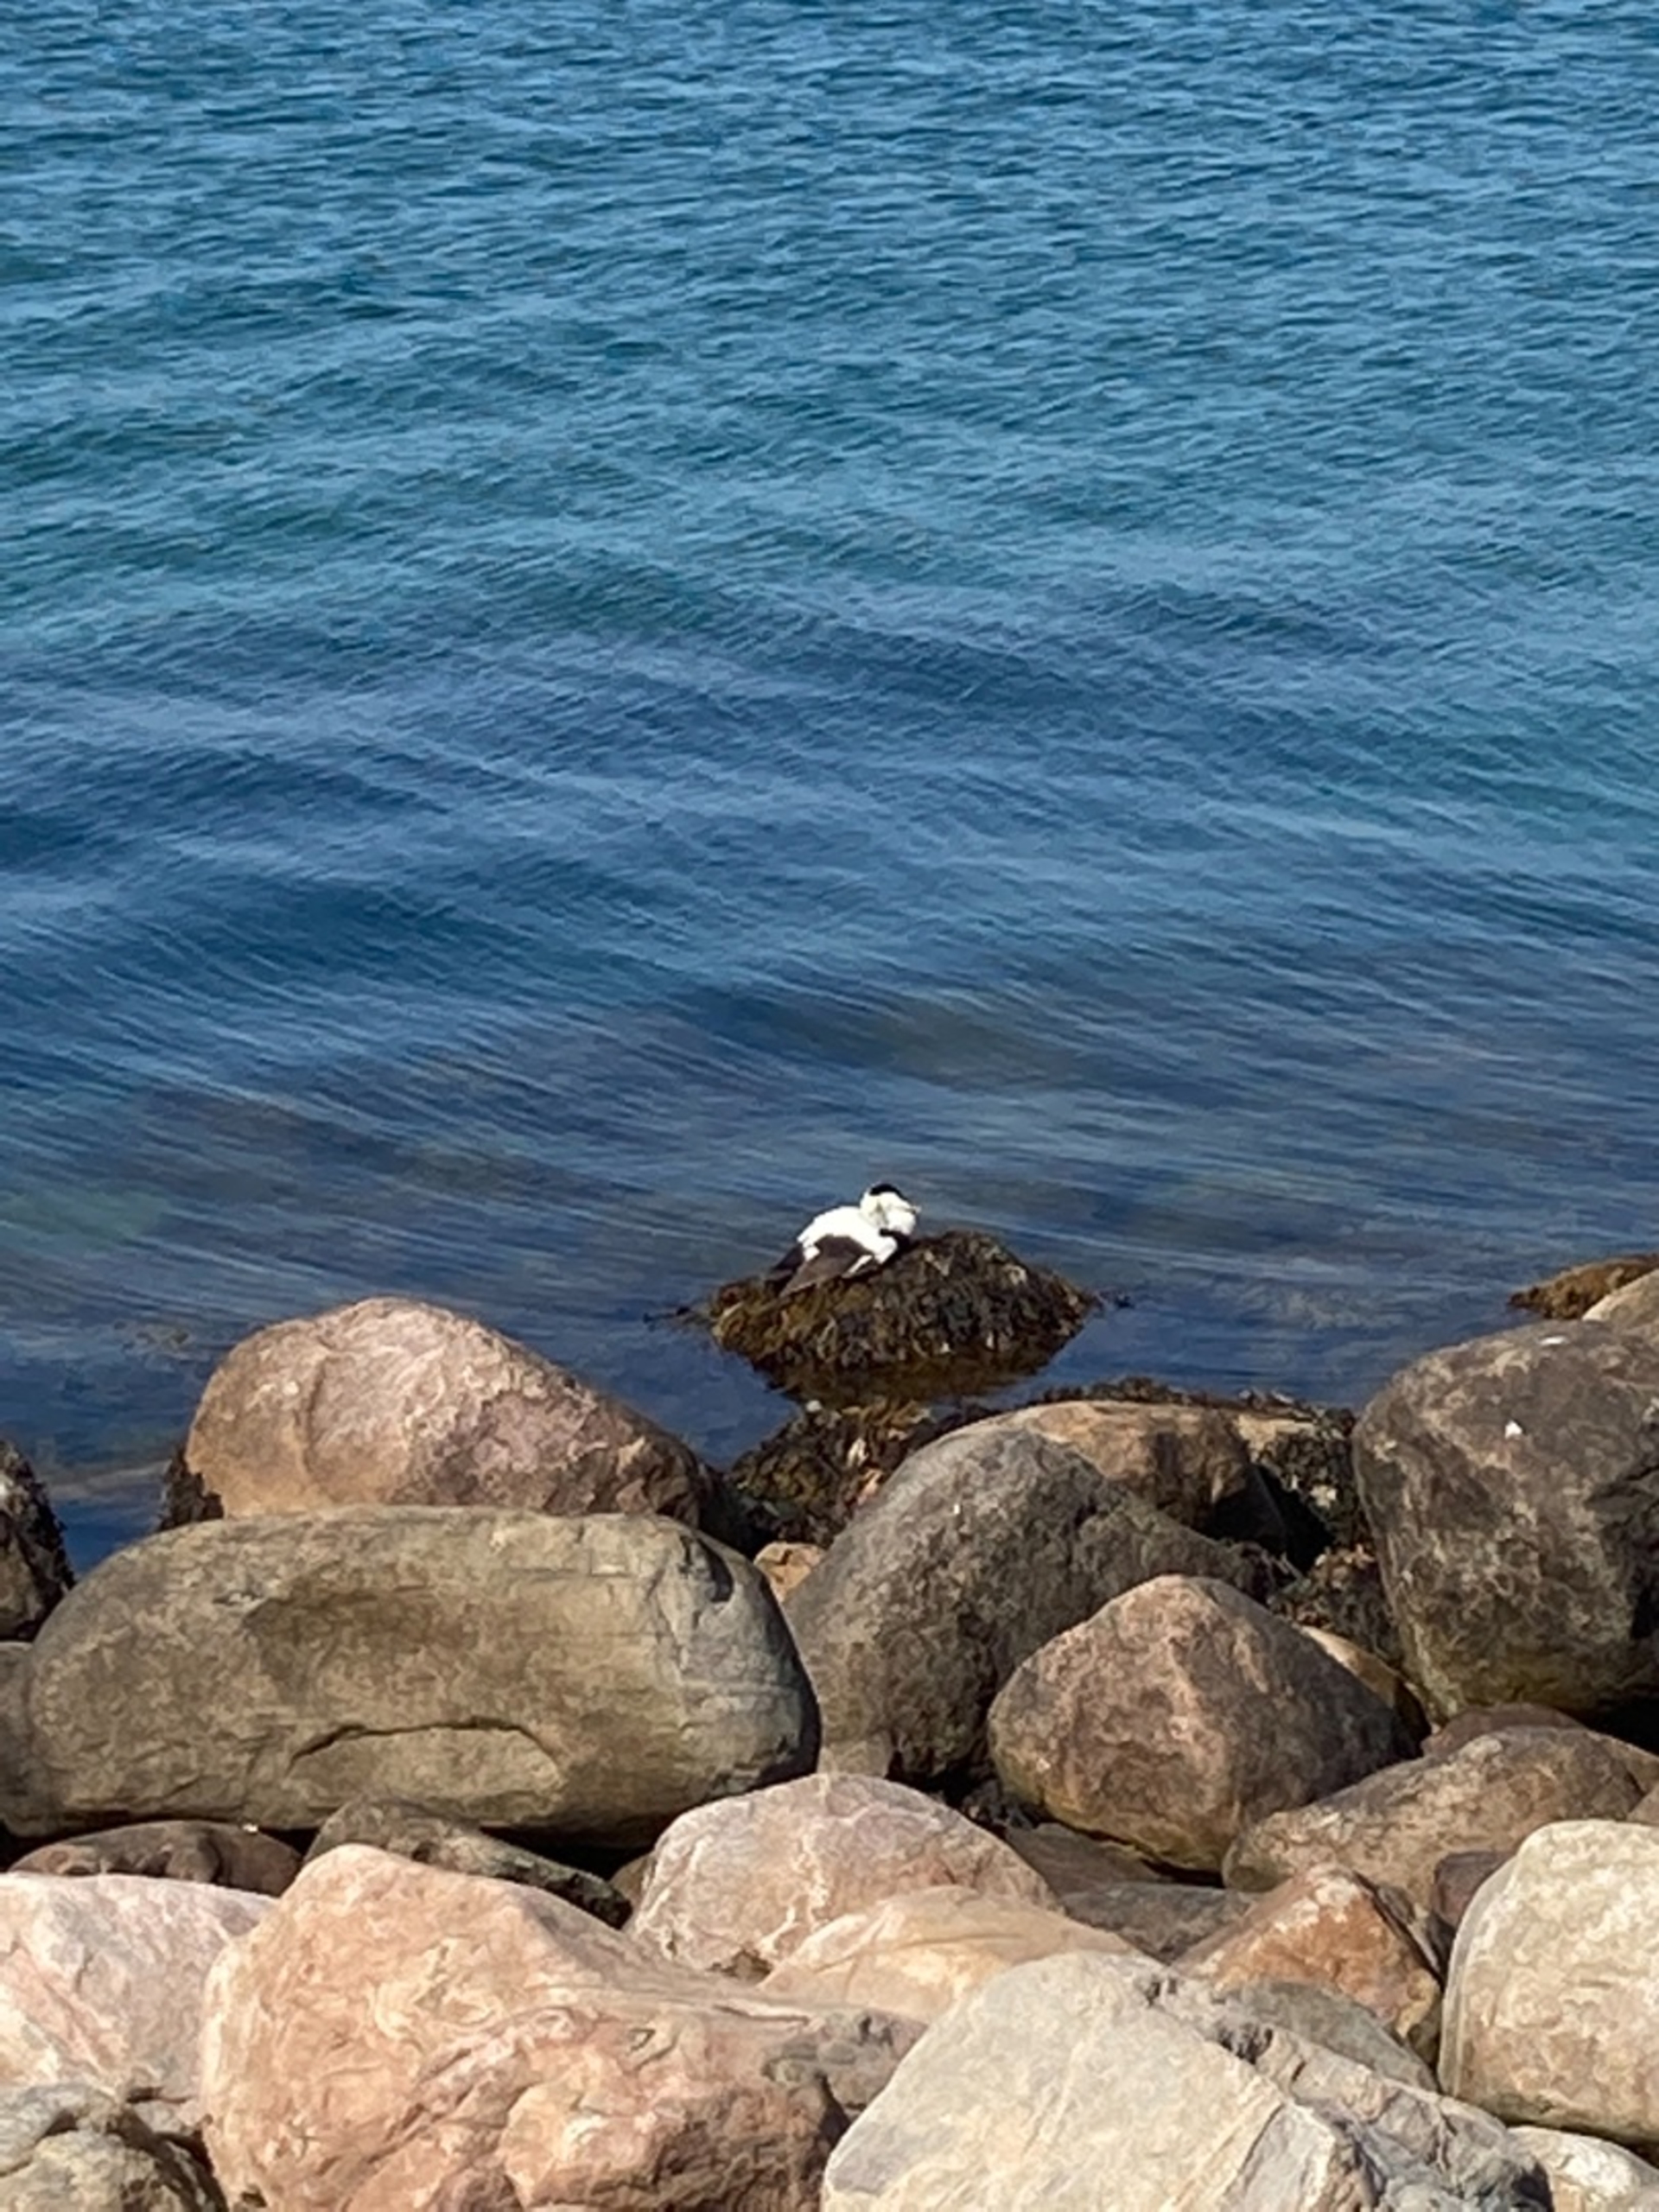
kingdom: Animalia
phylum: Chordata
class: Aves
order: Anseriformes
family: Anatidae
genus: Somateria
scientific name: Somateria mollissima
